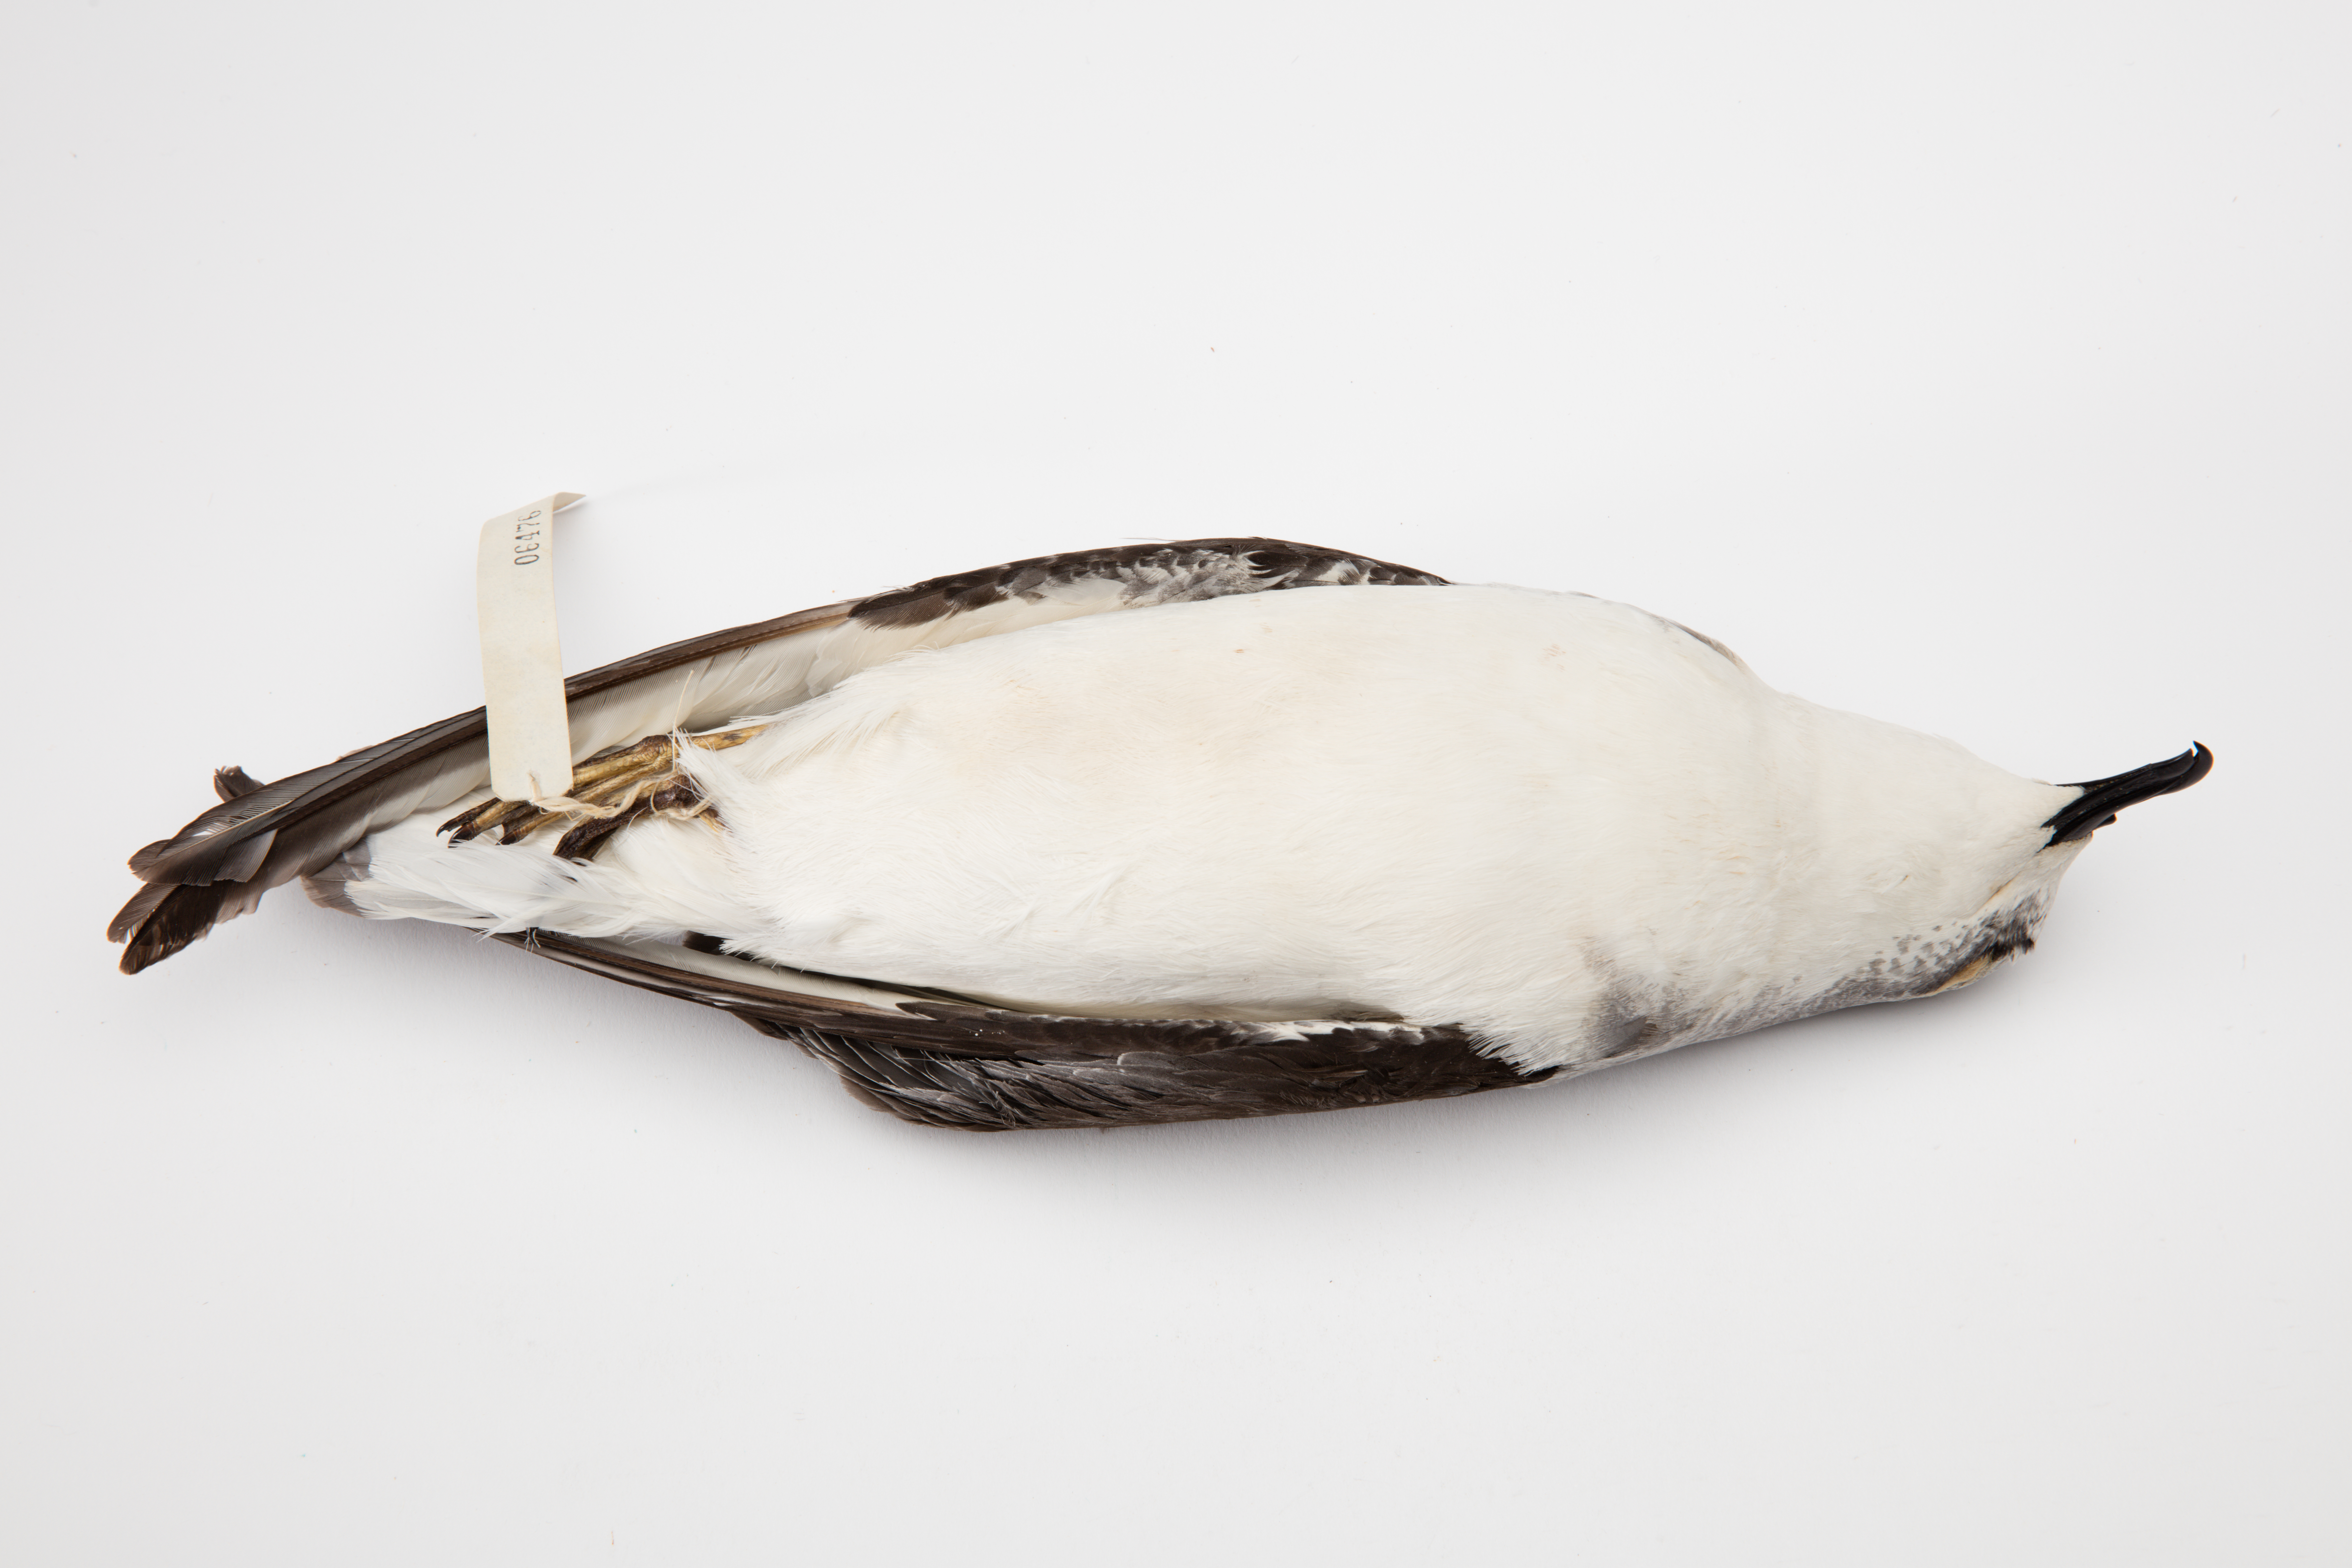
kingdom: Animalia
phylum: Chordata
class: Aves
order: Procellariiformes
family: Procellariidae
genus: Pterodroma
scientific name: Pterodroma cookii
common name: Cook's petrel
